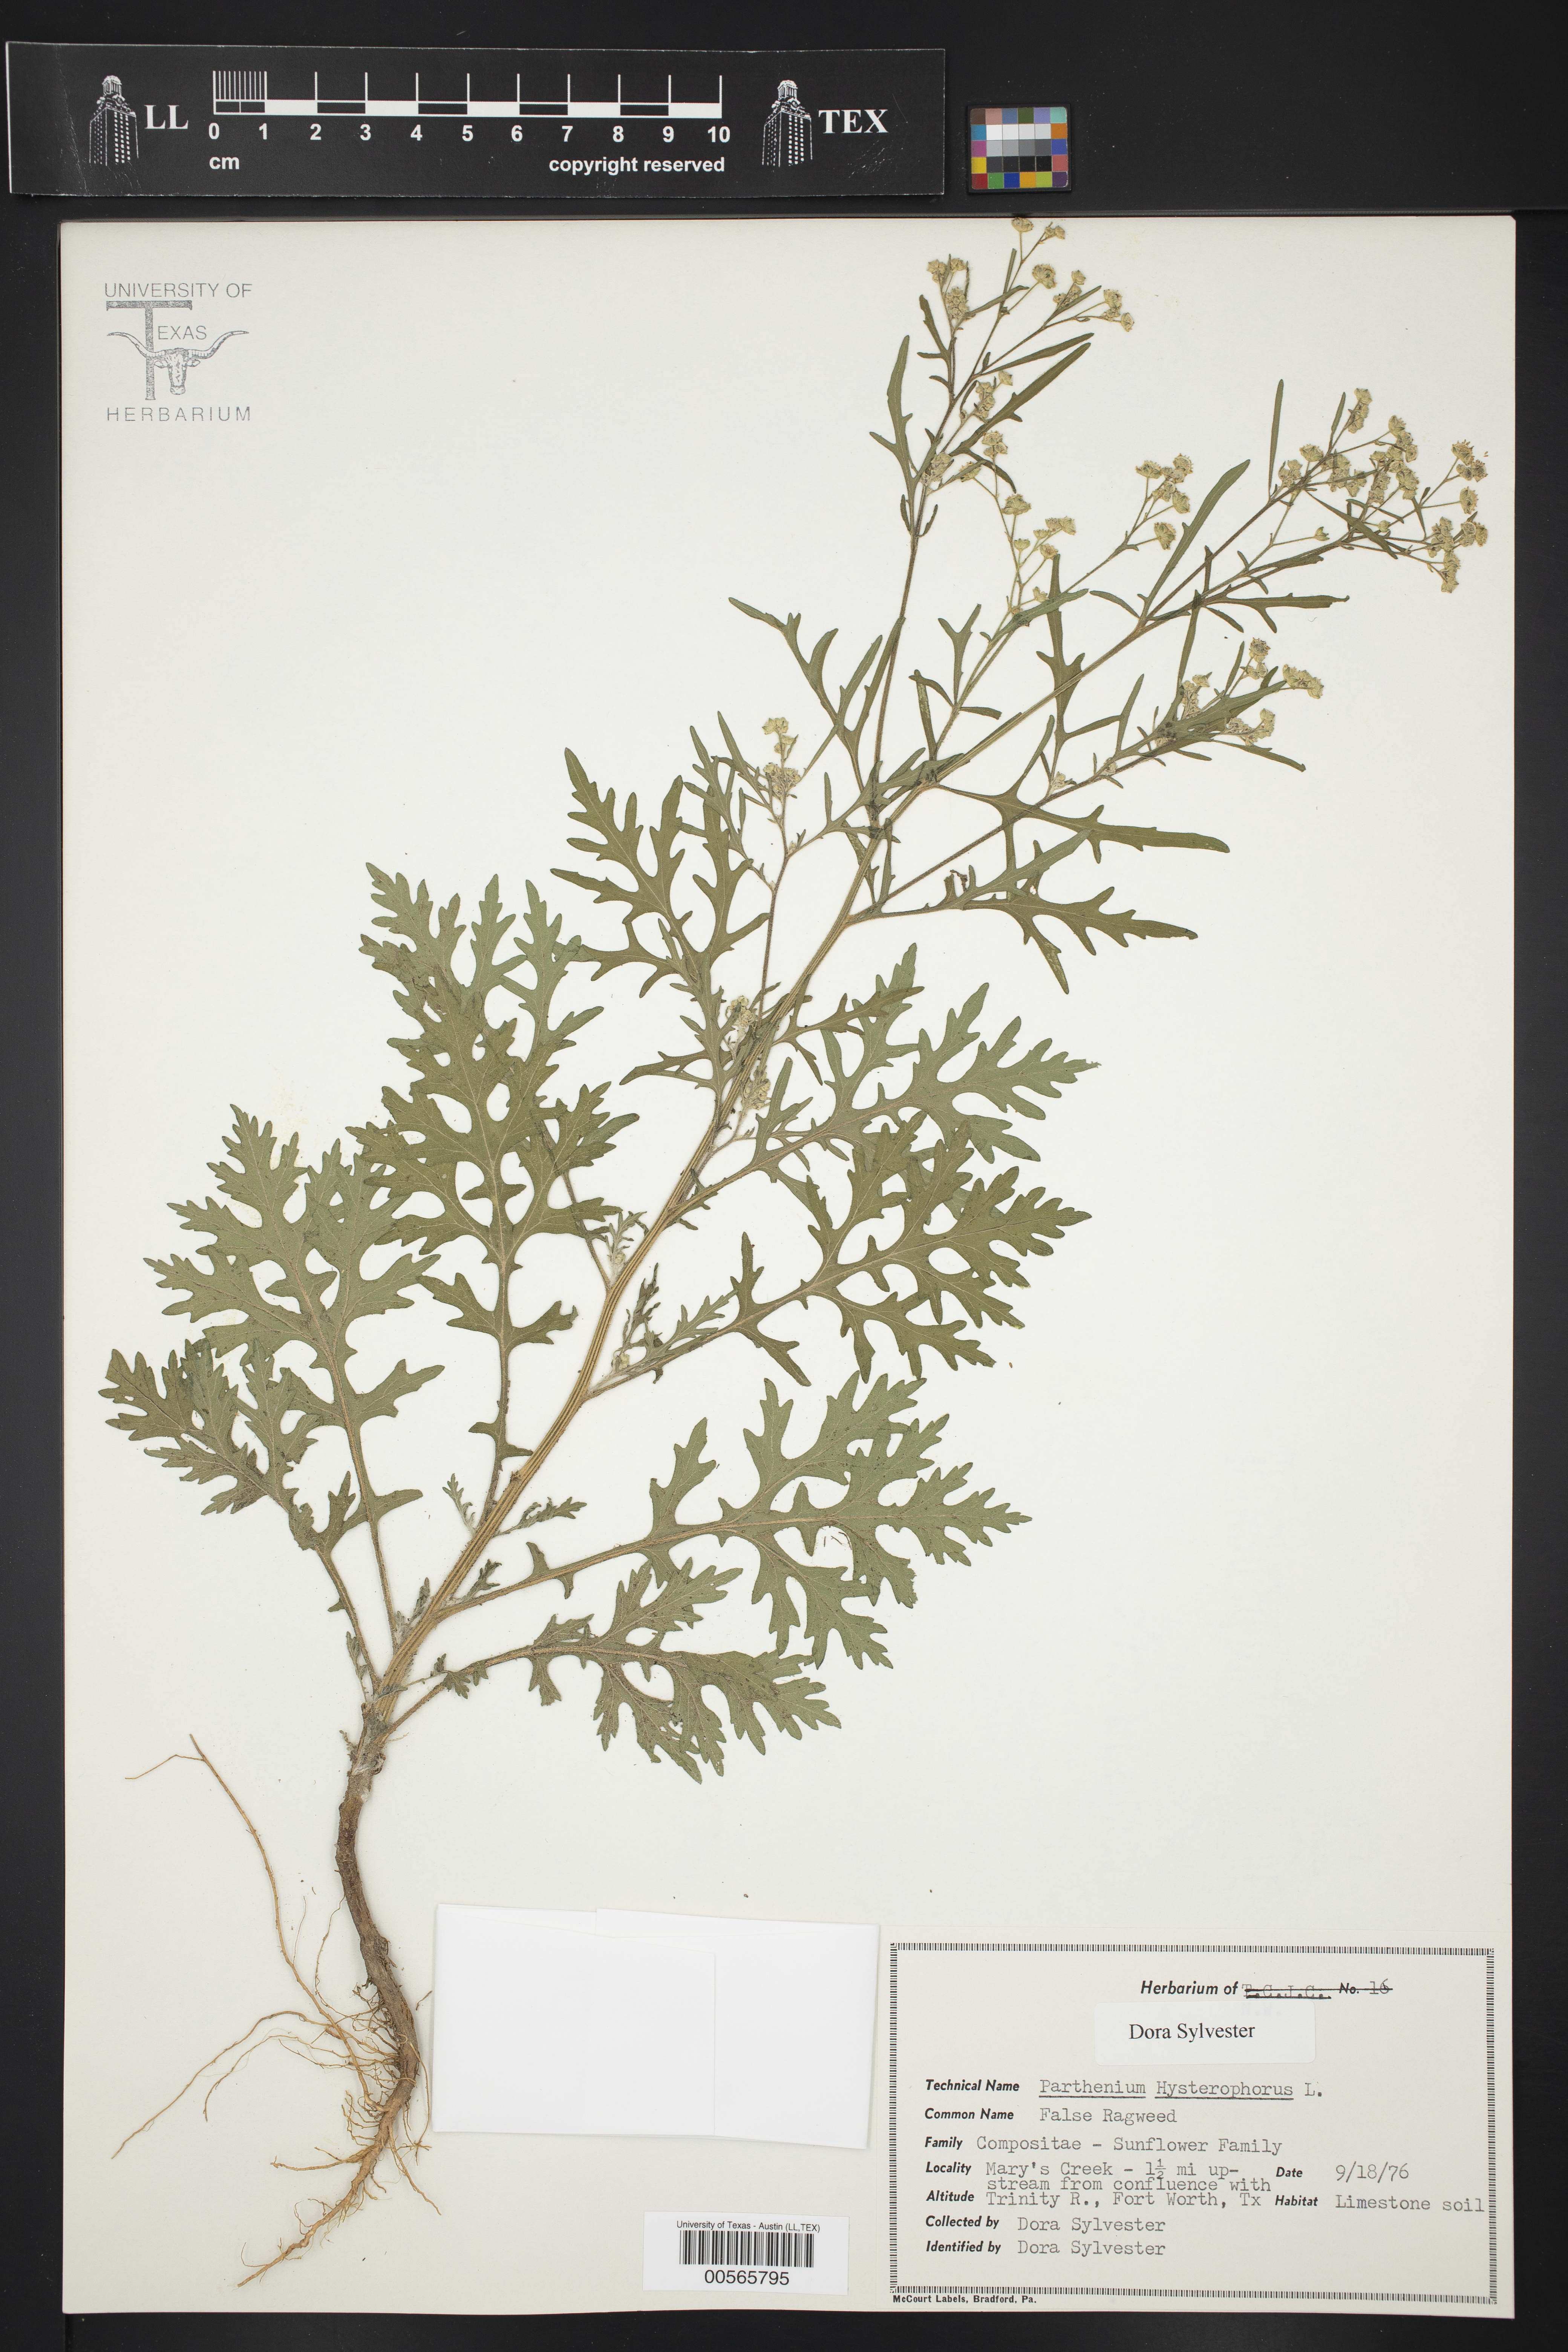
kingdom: Plantae
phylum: Tracheophyta
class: Magnoliopsida
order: Asterales
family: Asteraceae
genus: Parthenium
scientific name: Parthenium hysterophorus
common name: Santa maria feverfew
